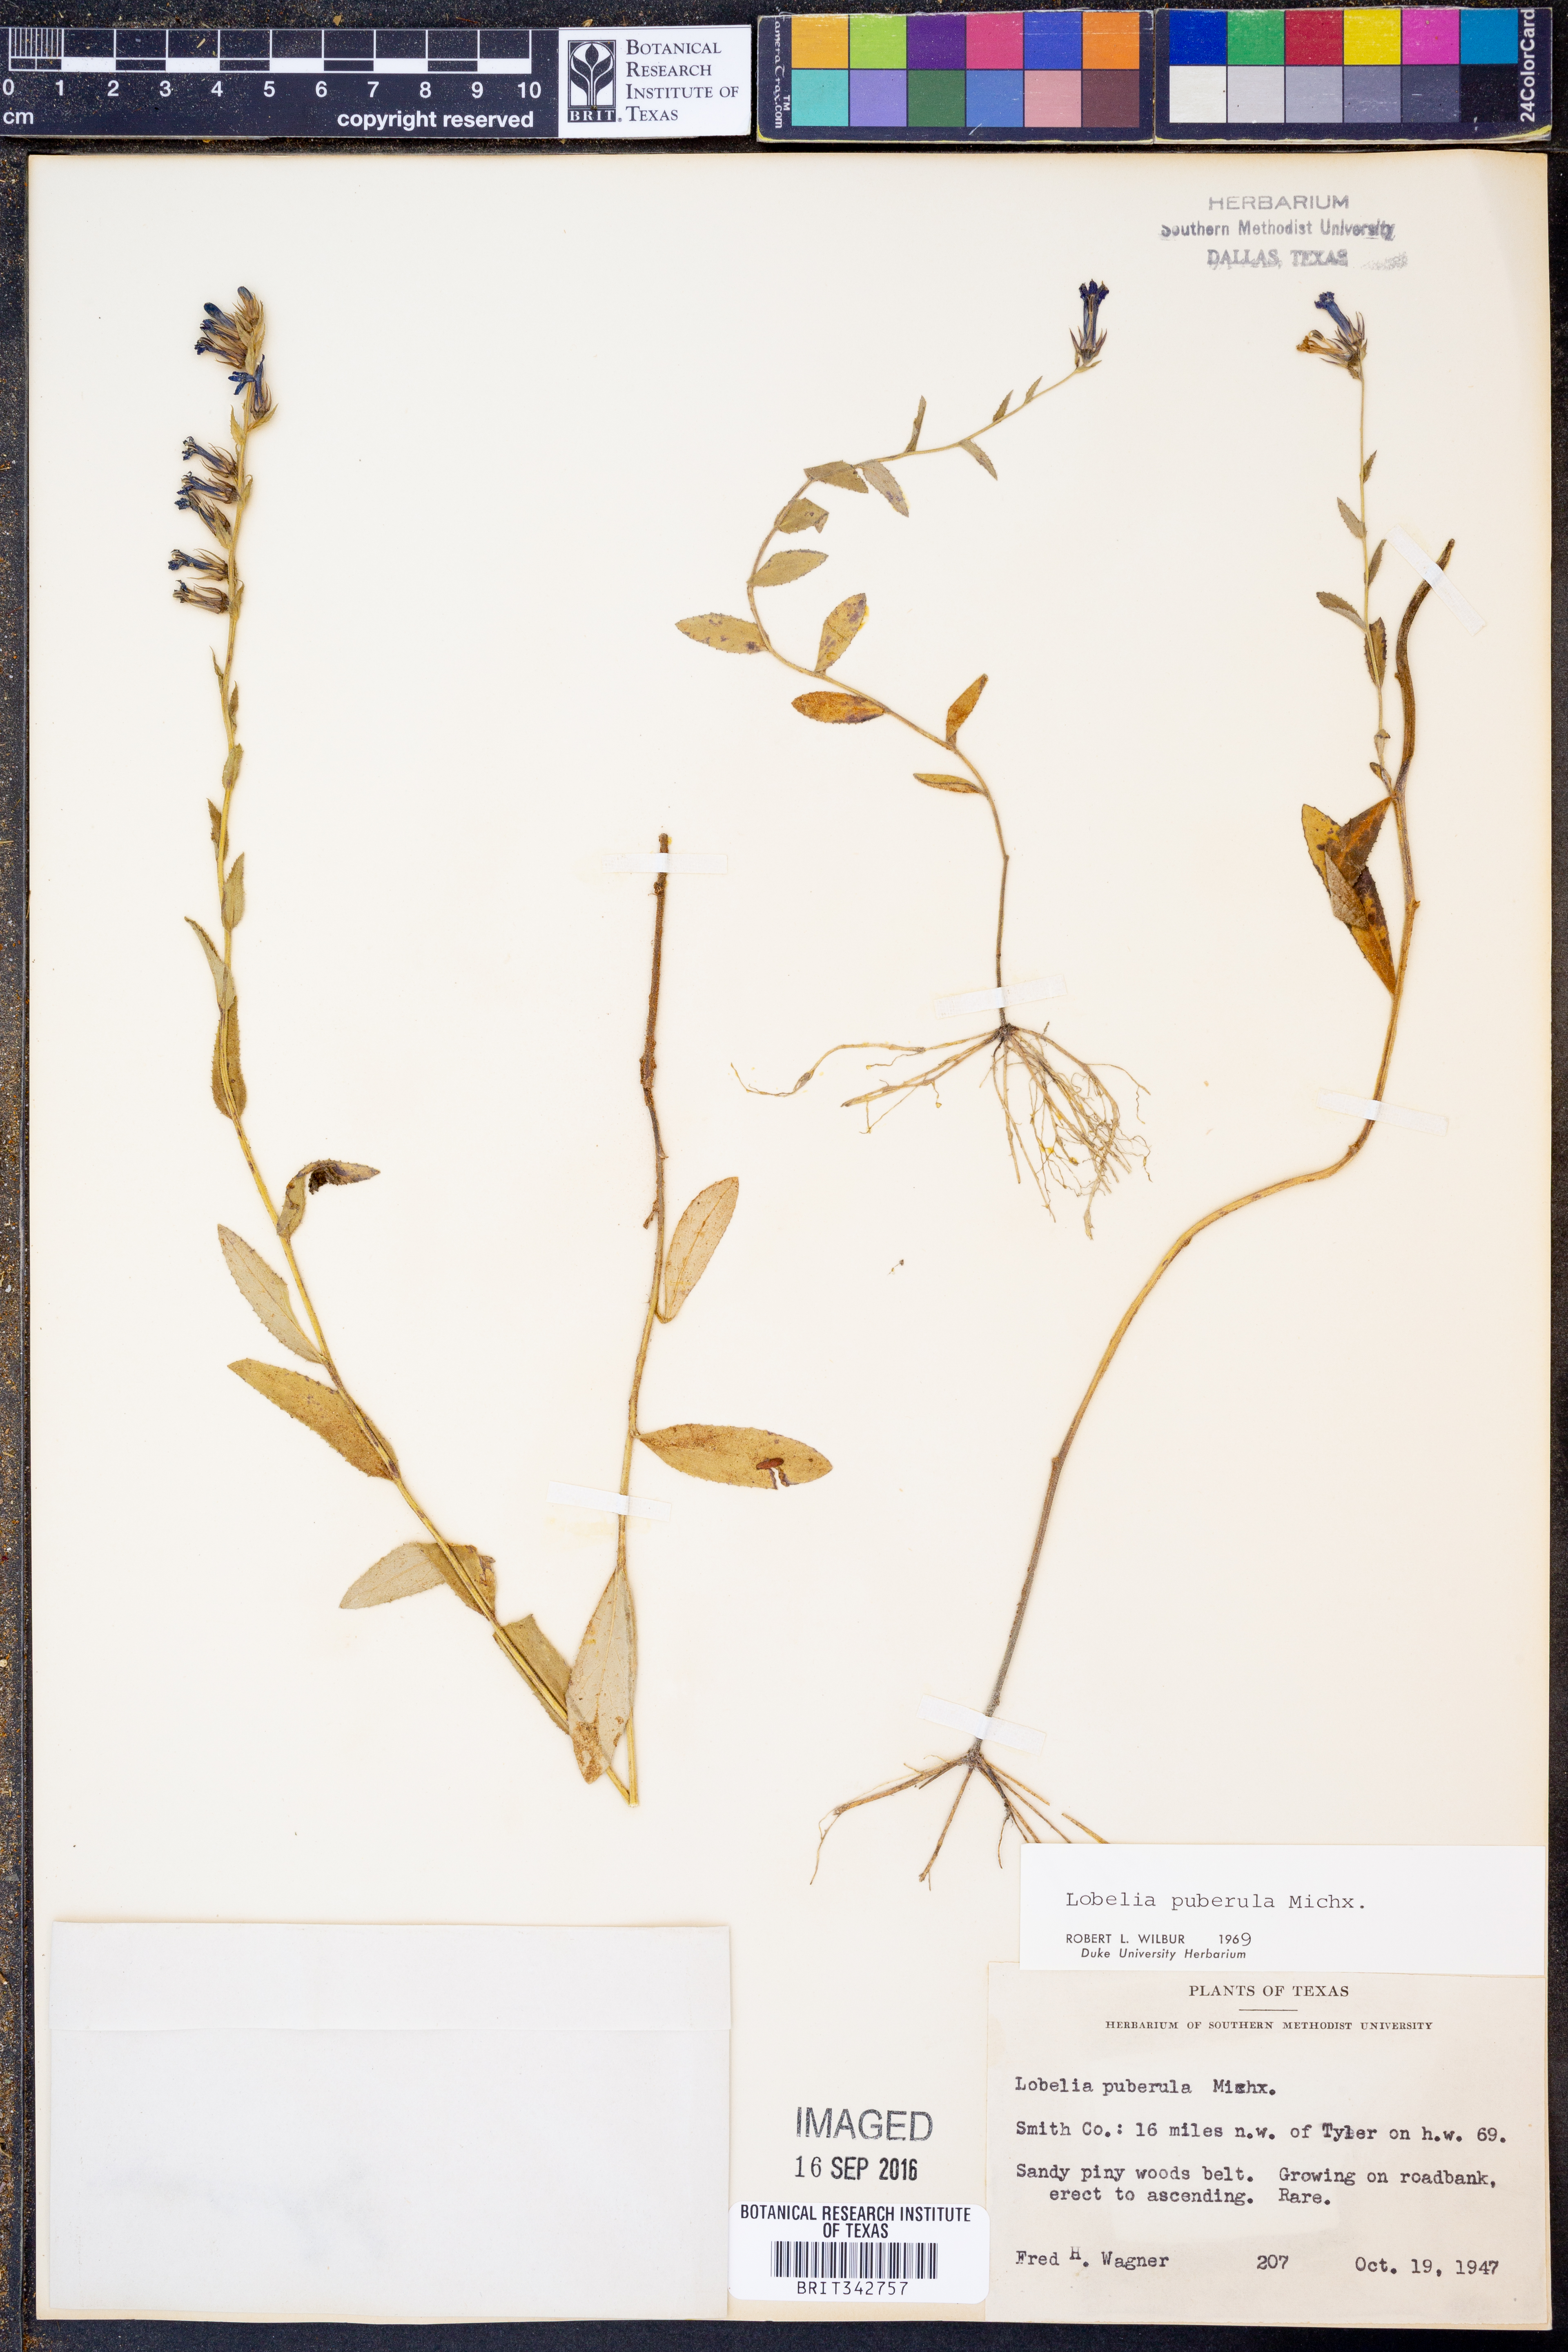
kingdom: Plantae
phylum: Tracheophyta
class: Magnoliopsida
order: Asterales
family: Campanulaceae
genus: Lobelia
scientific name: Lobelia puberula
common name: Purple dewdrop
